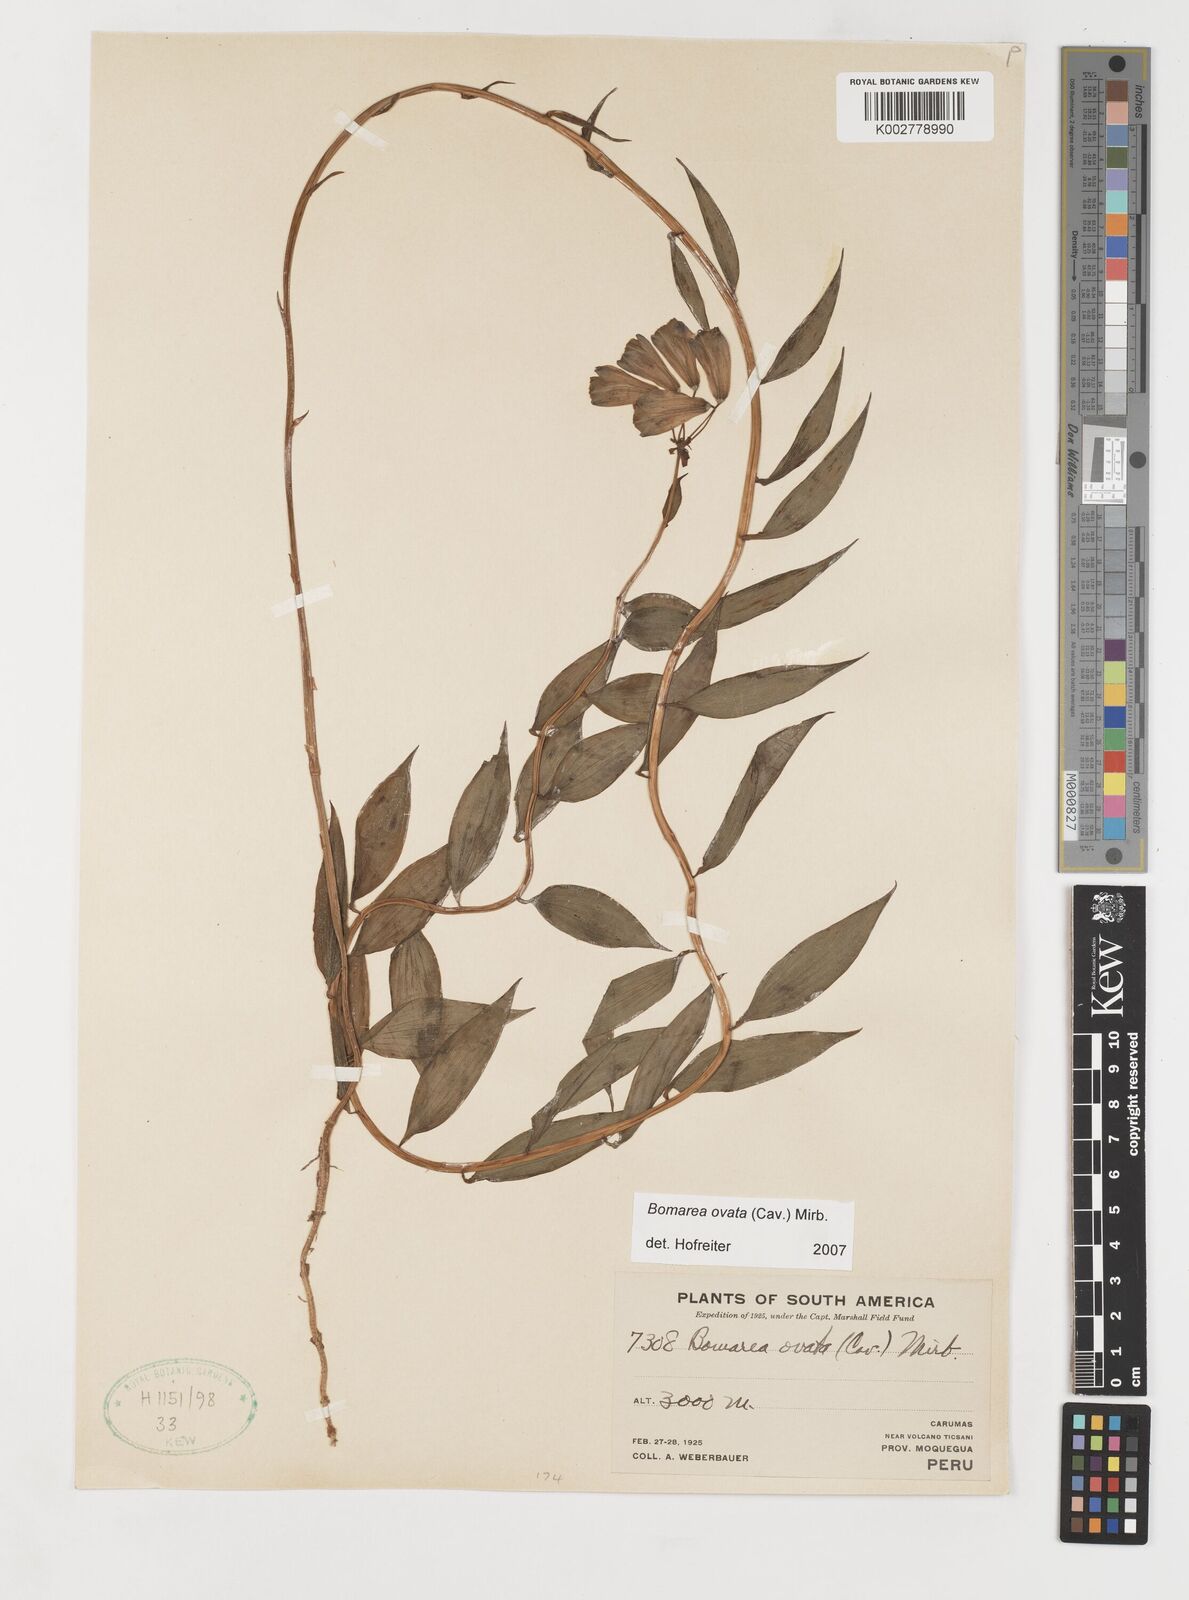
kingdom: Plantae
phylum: Tracheophyta
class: Liliopsida
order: Liliales
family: Alstroemeriaceae
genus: Bomarea
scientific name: Bomarea ovata
